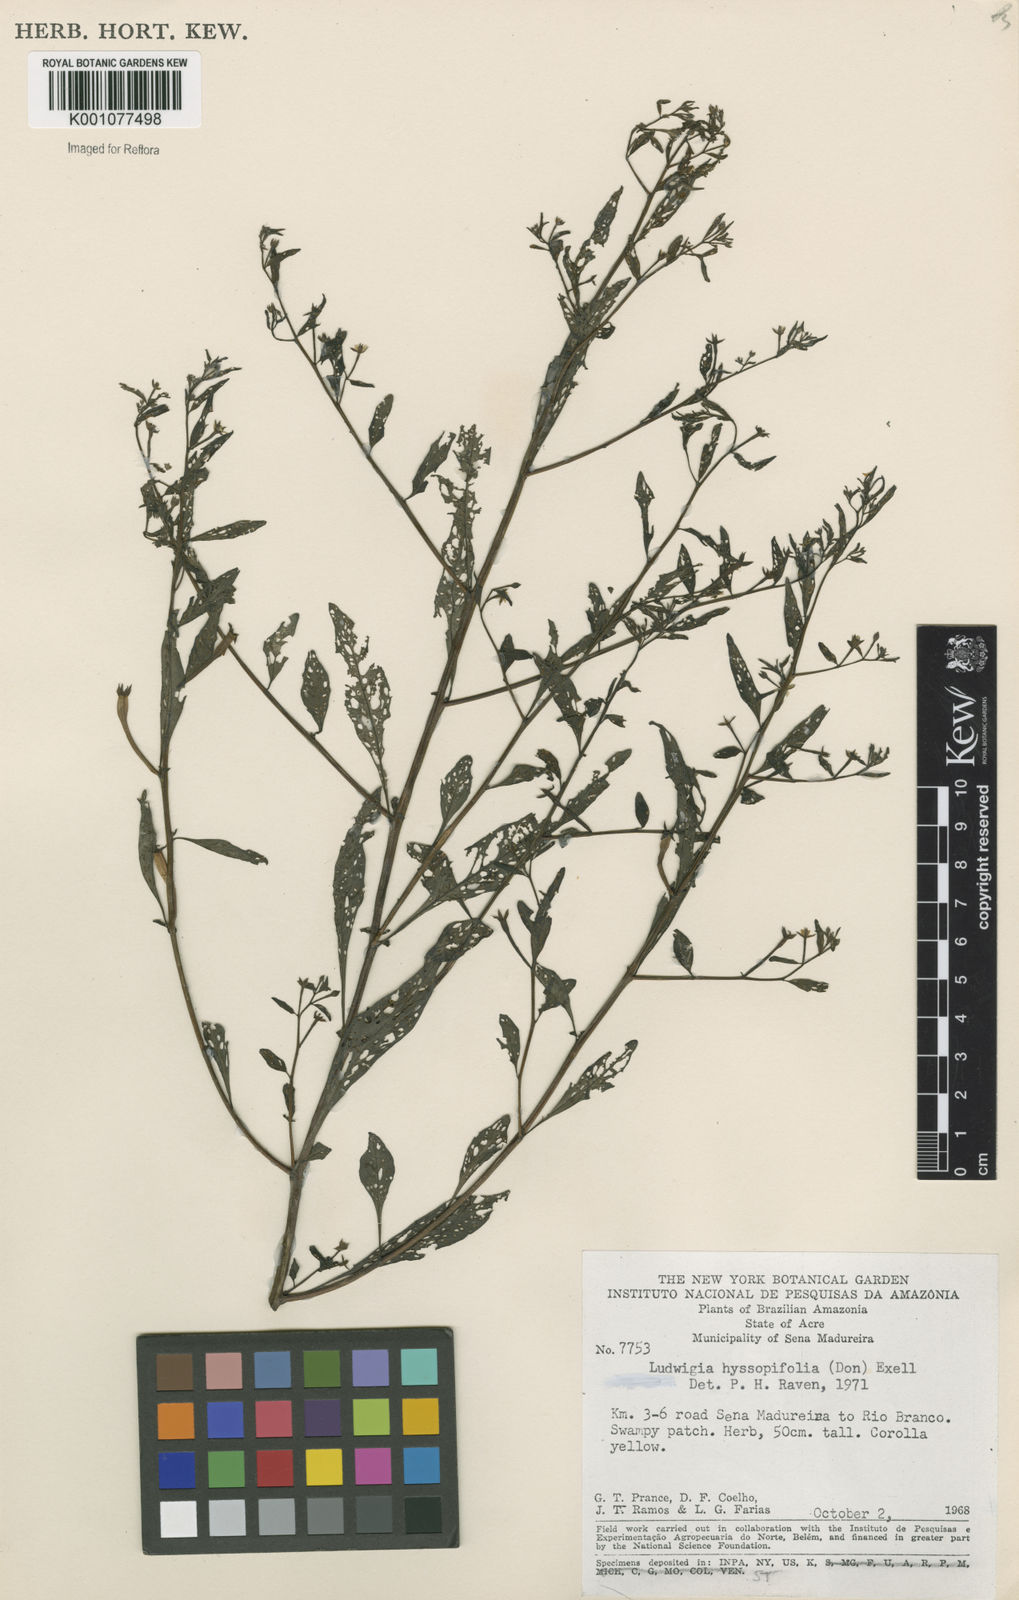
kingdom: Plantae
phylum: Tracheophyta
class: Magnoliopsida
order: Myrtales
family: Onagraceae
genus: Ludwigia
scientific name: Ludwigia hyssopifolia
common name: Linear leaf water primrose
